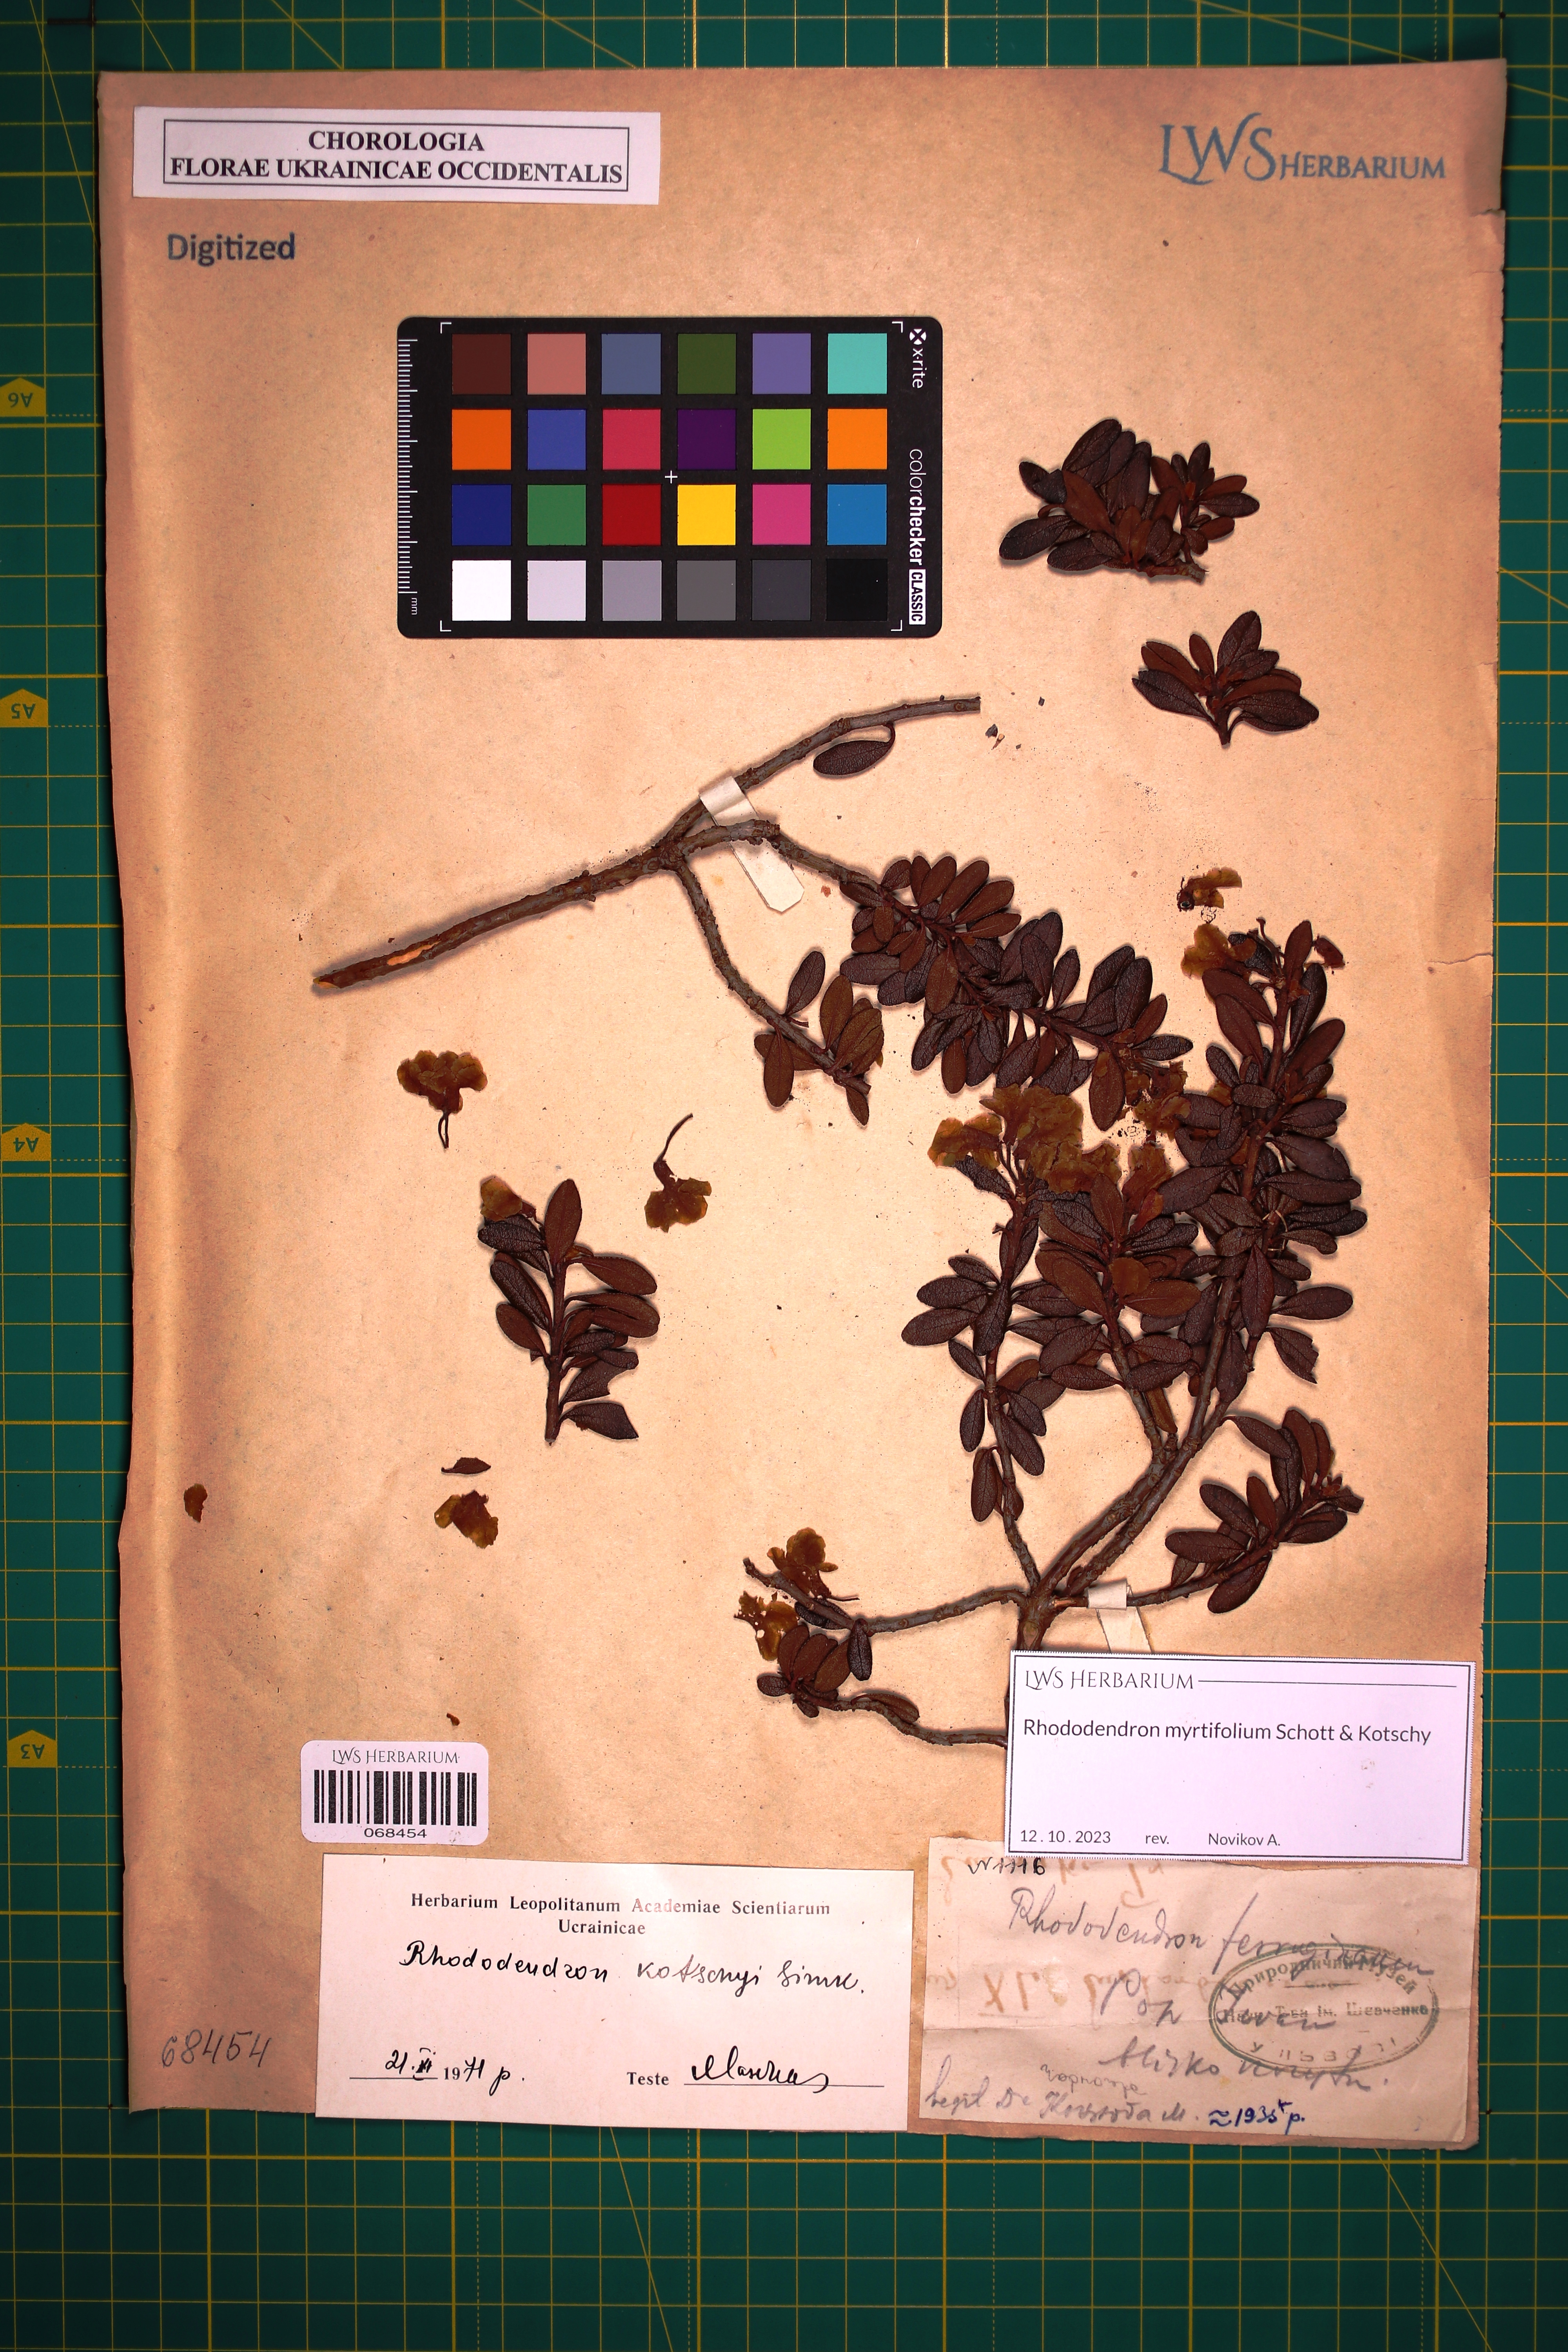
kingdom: Plantae
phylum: Tracheophyta
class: Magnoliopsida
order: Ericales
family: Ericaceae
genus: Rhododendron
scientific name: Rhododendron kotschyi
